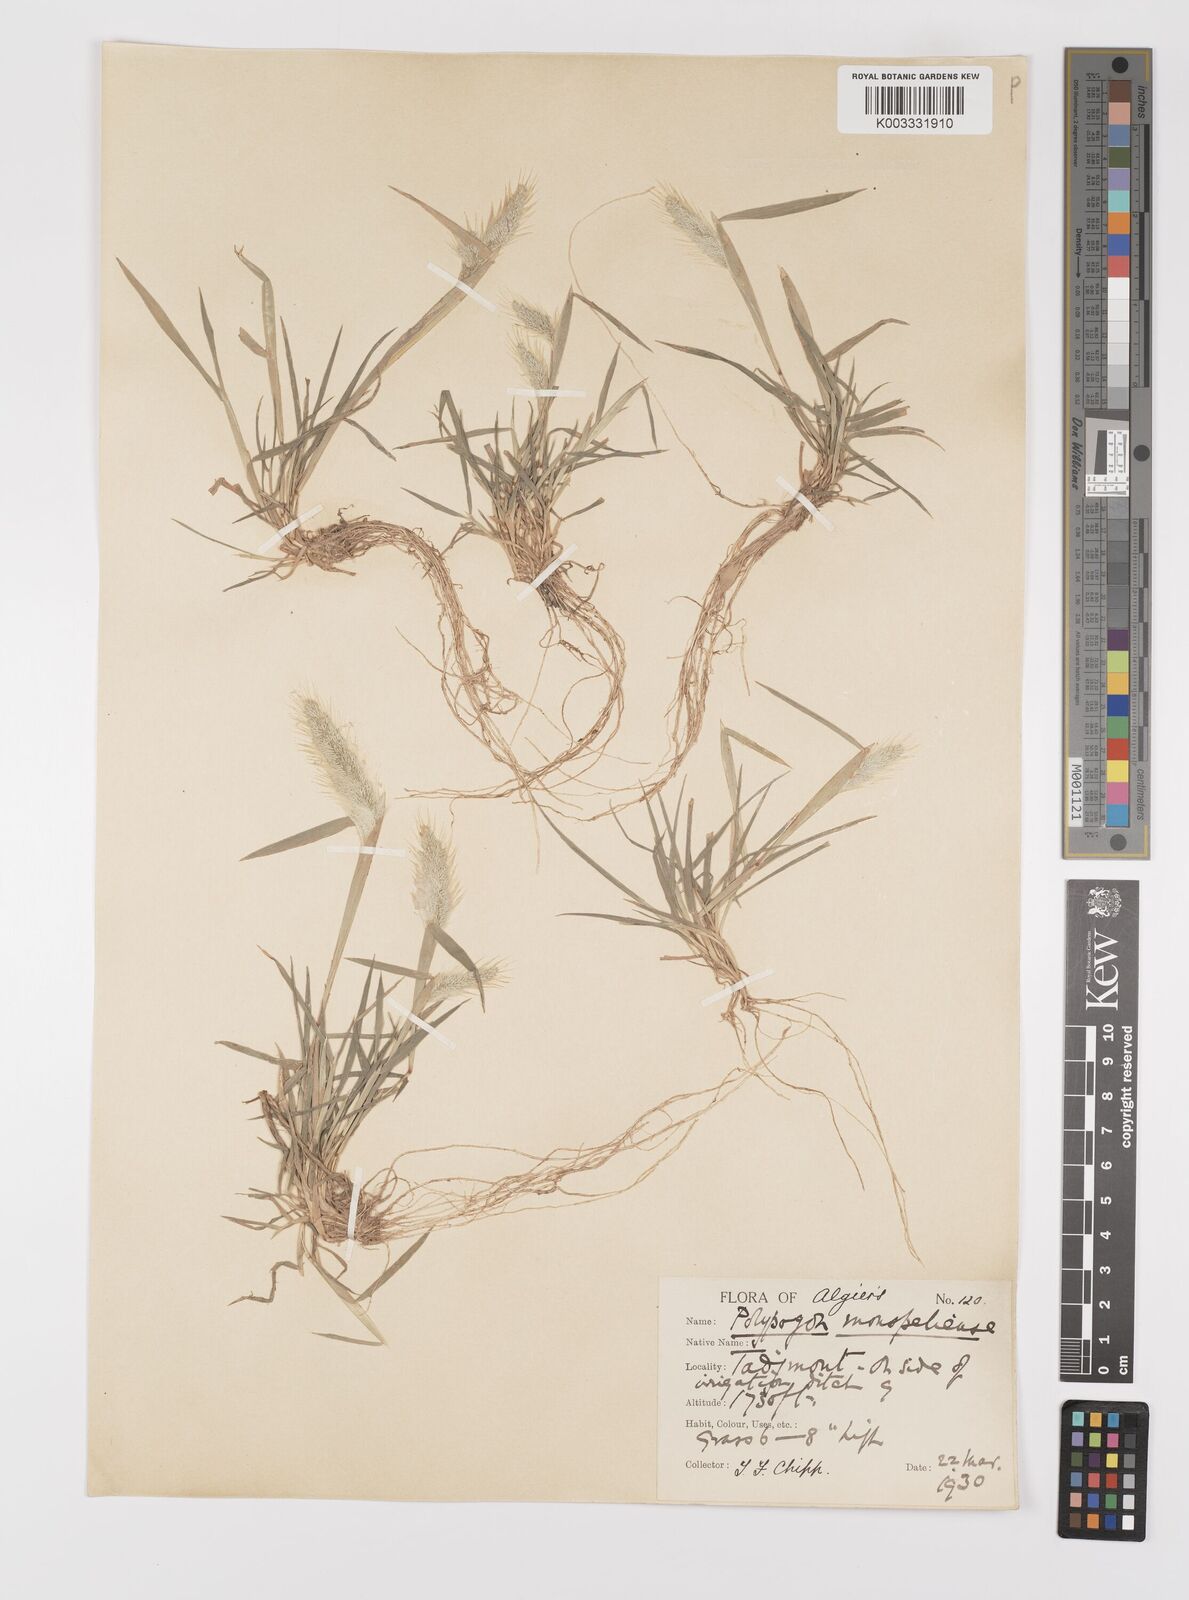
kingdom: Plantae
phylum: Tracheophyta
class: Liliopsida
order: Poales
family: Poaceae
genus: Polypogon
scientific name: Polypogon monspeliensis
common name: Annual rabbitsfoot grass
